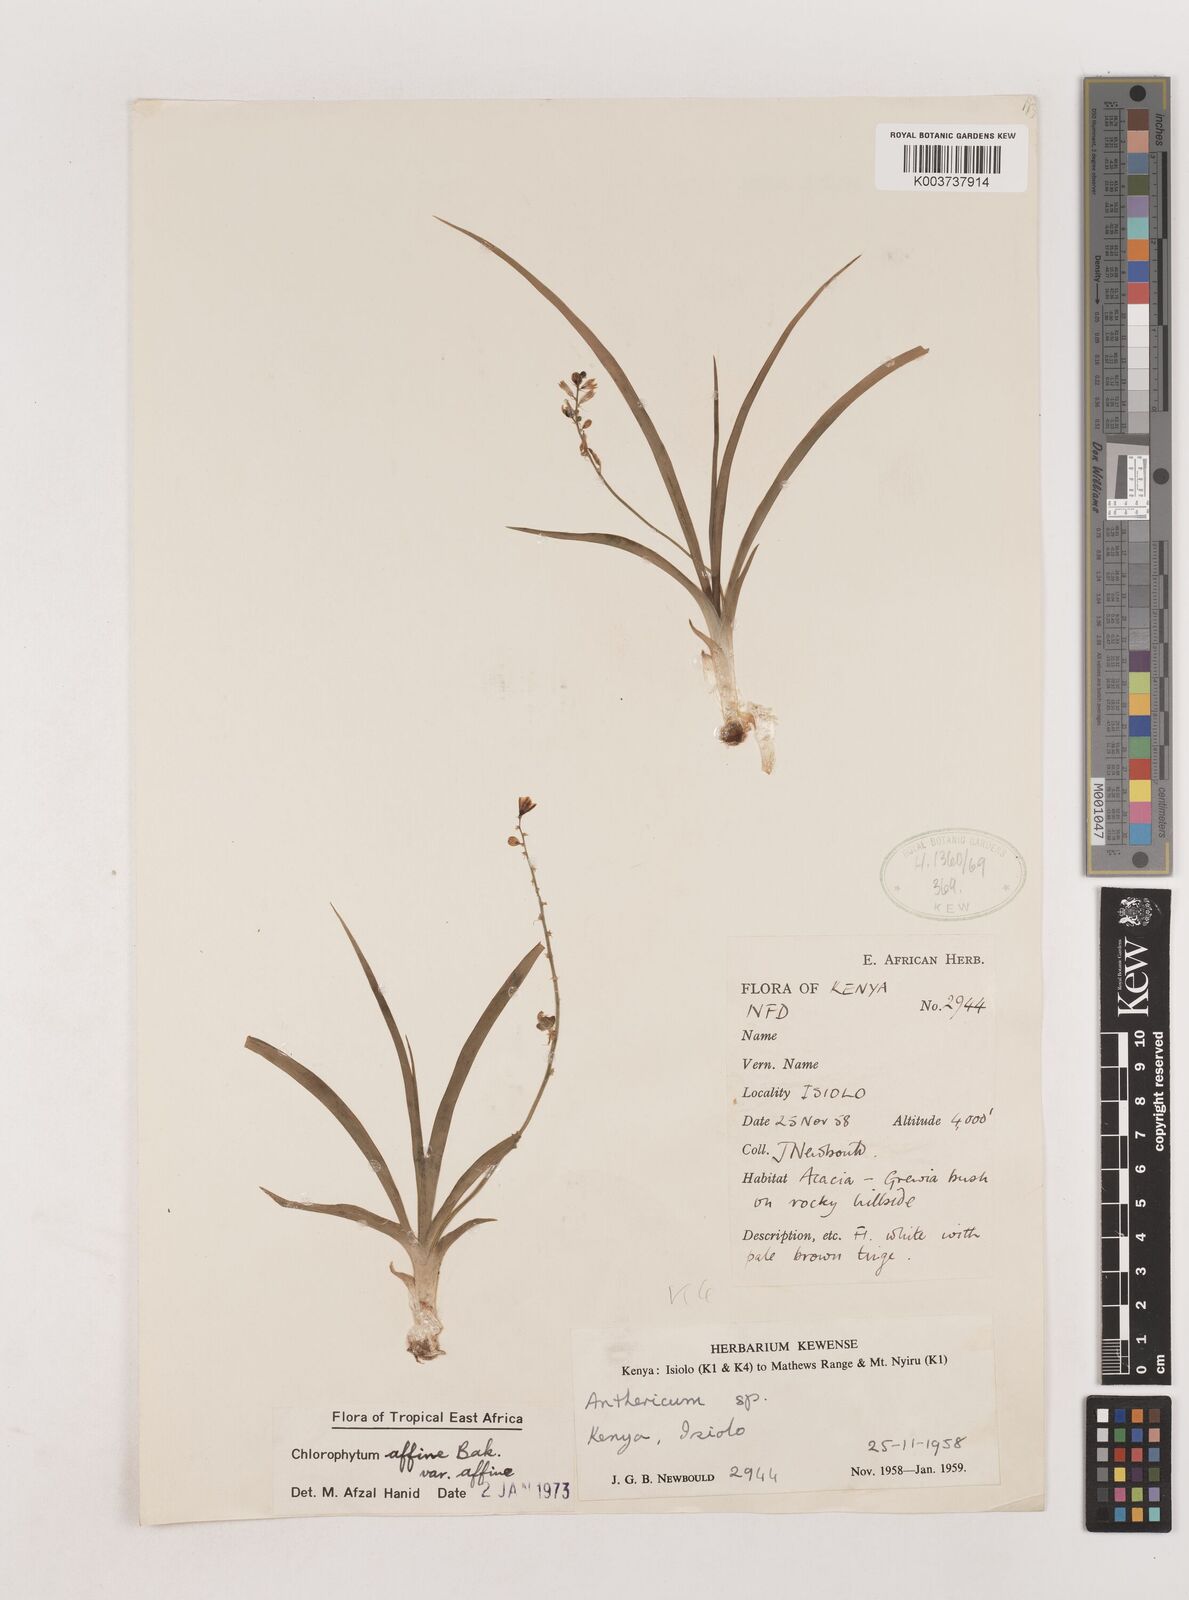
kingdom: Plantae
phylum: Tracheophyta
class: Liliopsida
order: Asparagales
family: Asparagaceae
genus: Chlorophytum
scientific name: Chlorophytum affine
